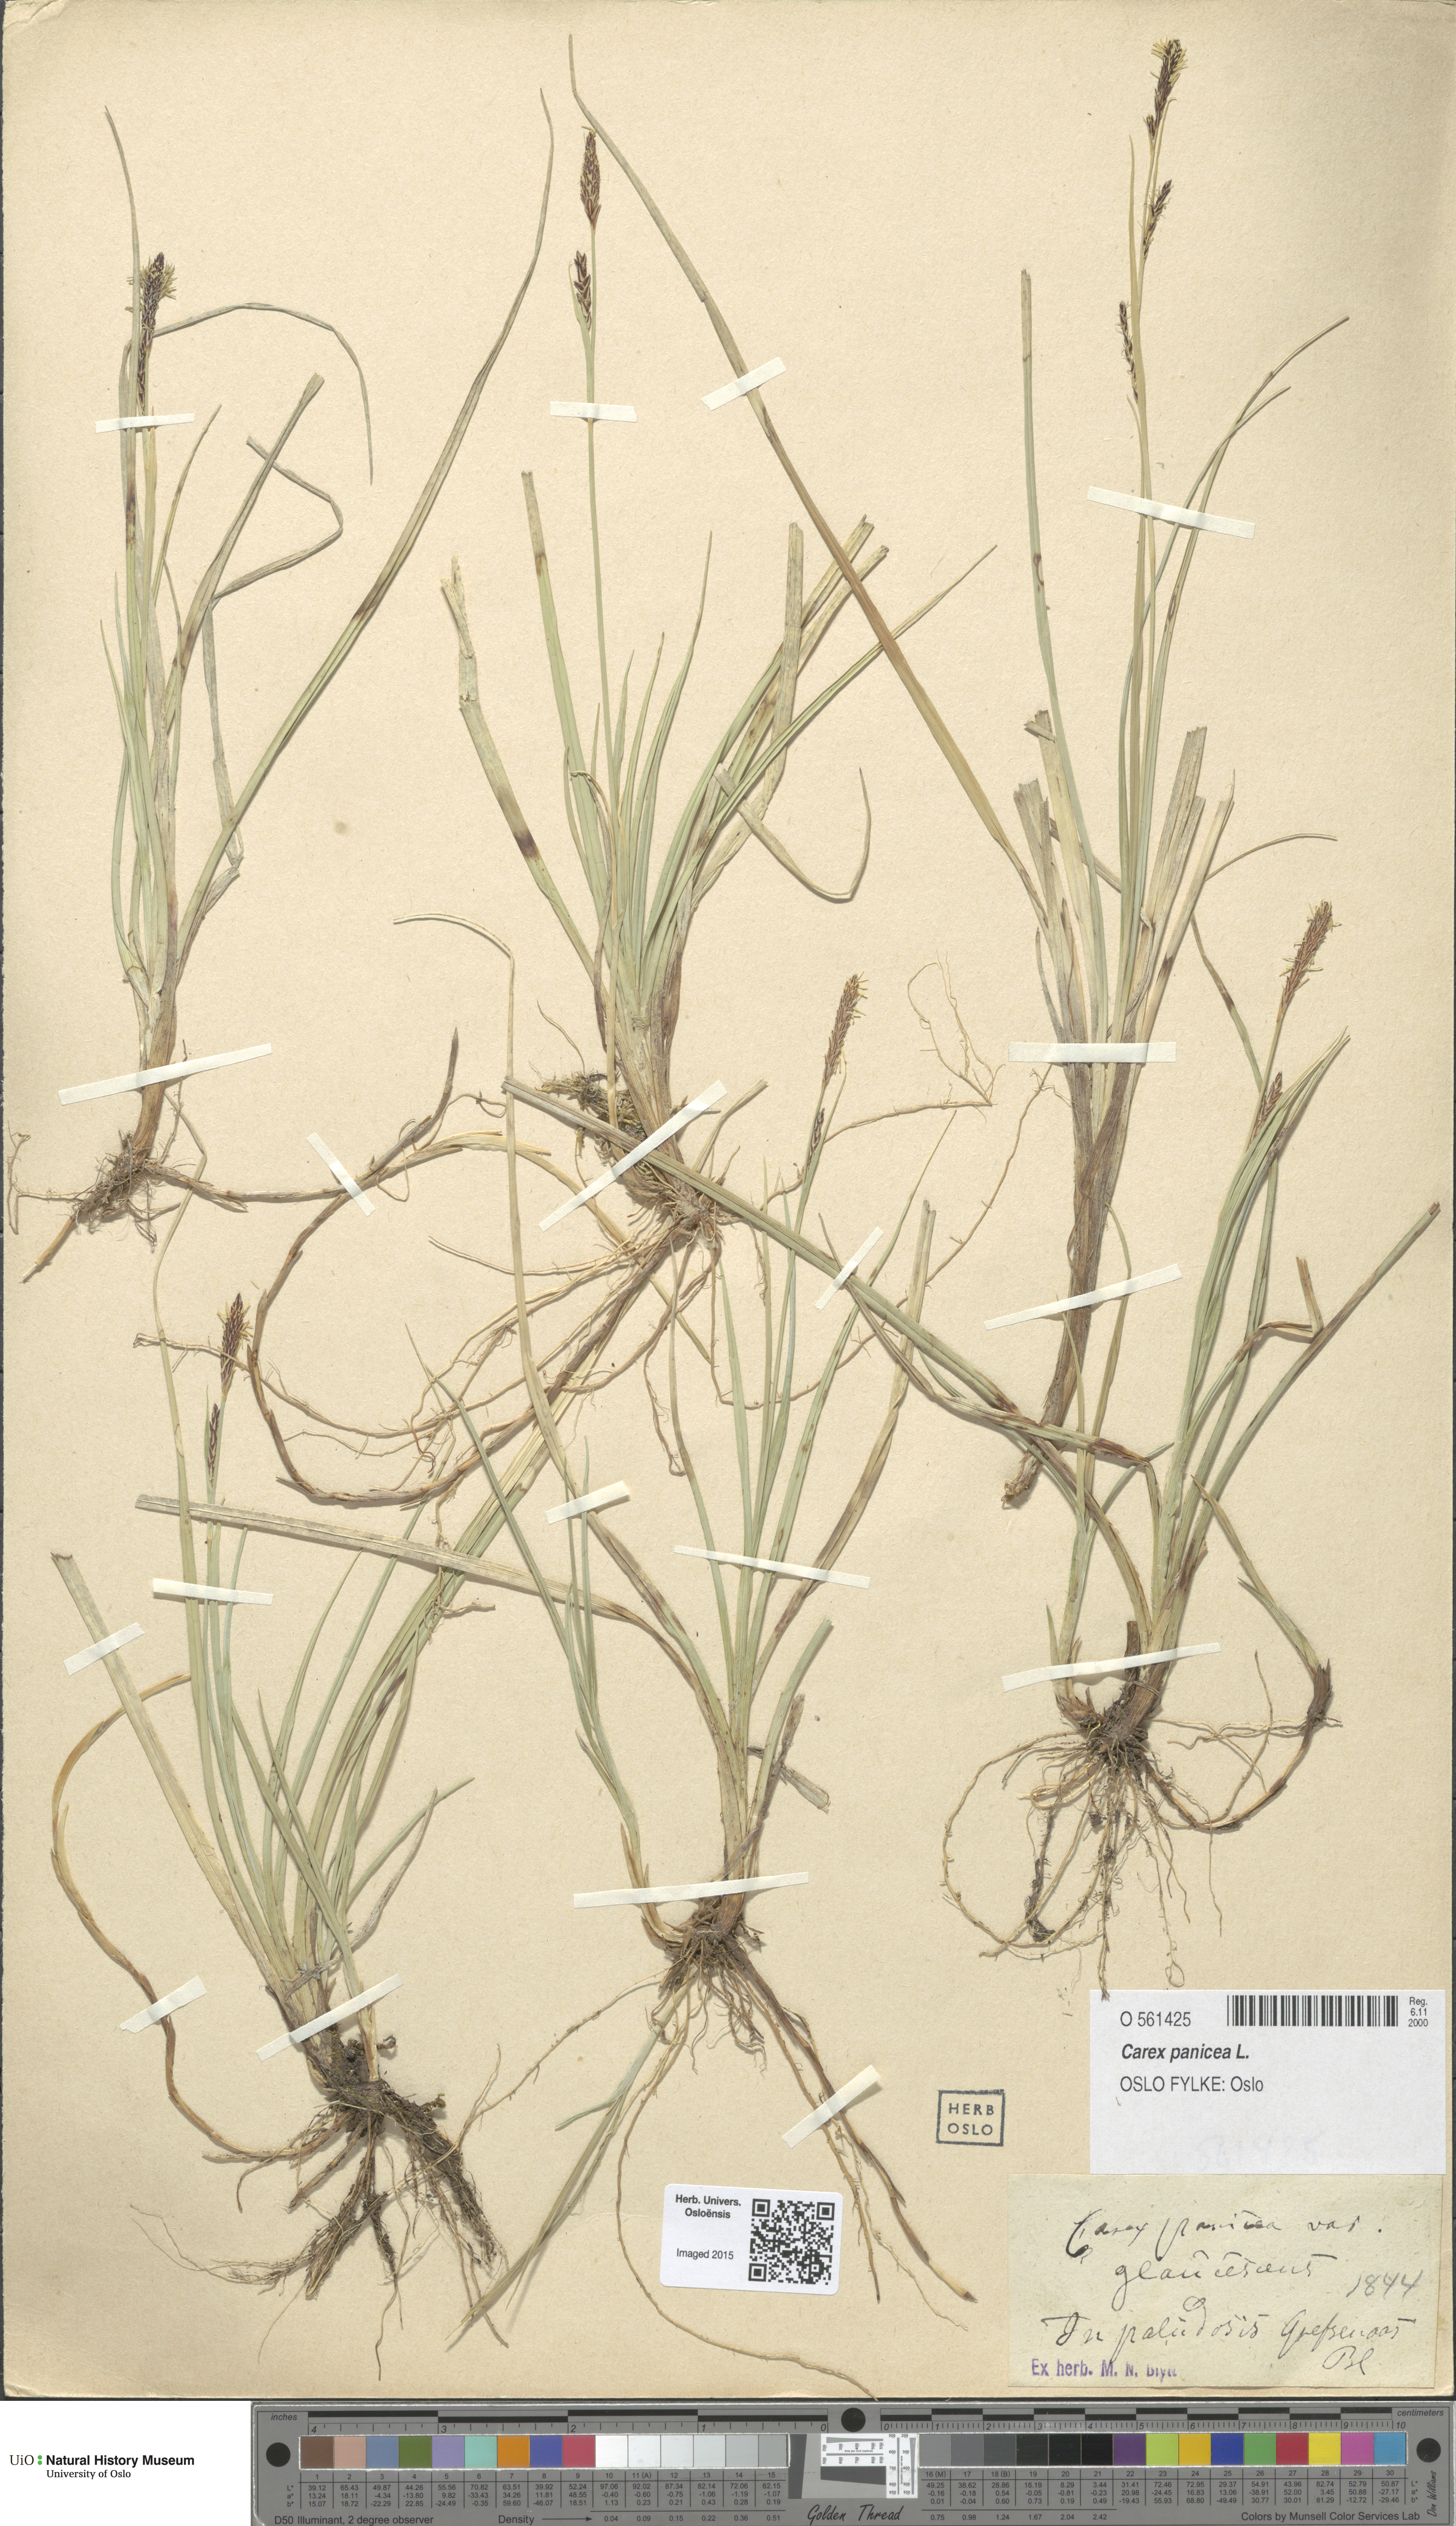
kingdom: Plantae
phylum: Tracheophyta
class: Liliopsida
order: Poales
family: Cyperaceae
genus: Carex
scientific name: Carex panicea
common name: Carnation sedge
